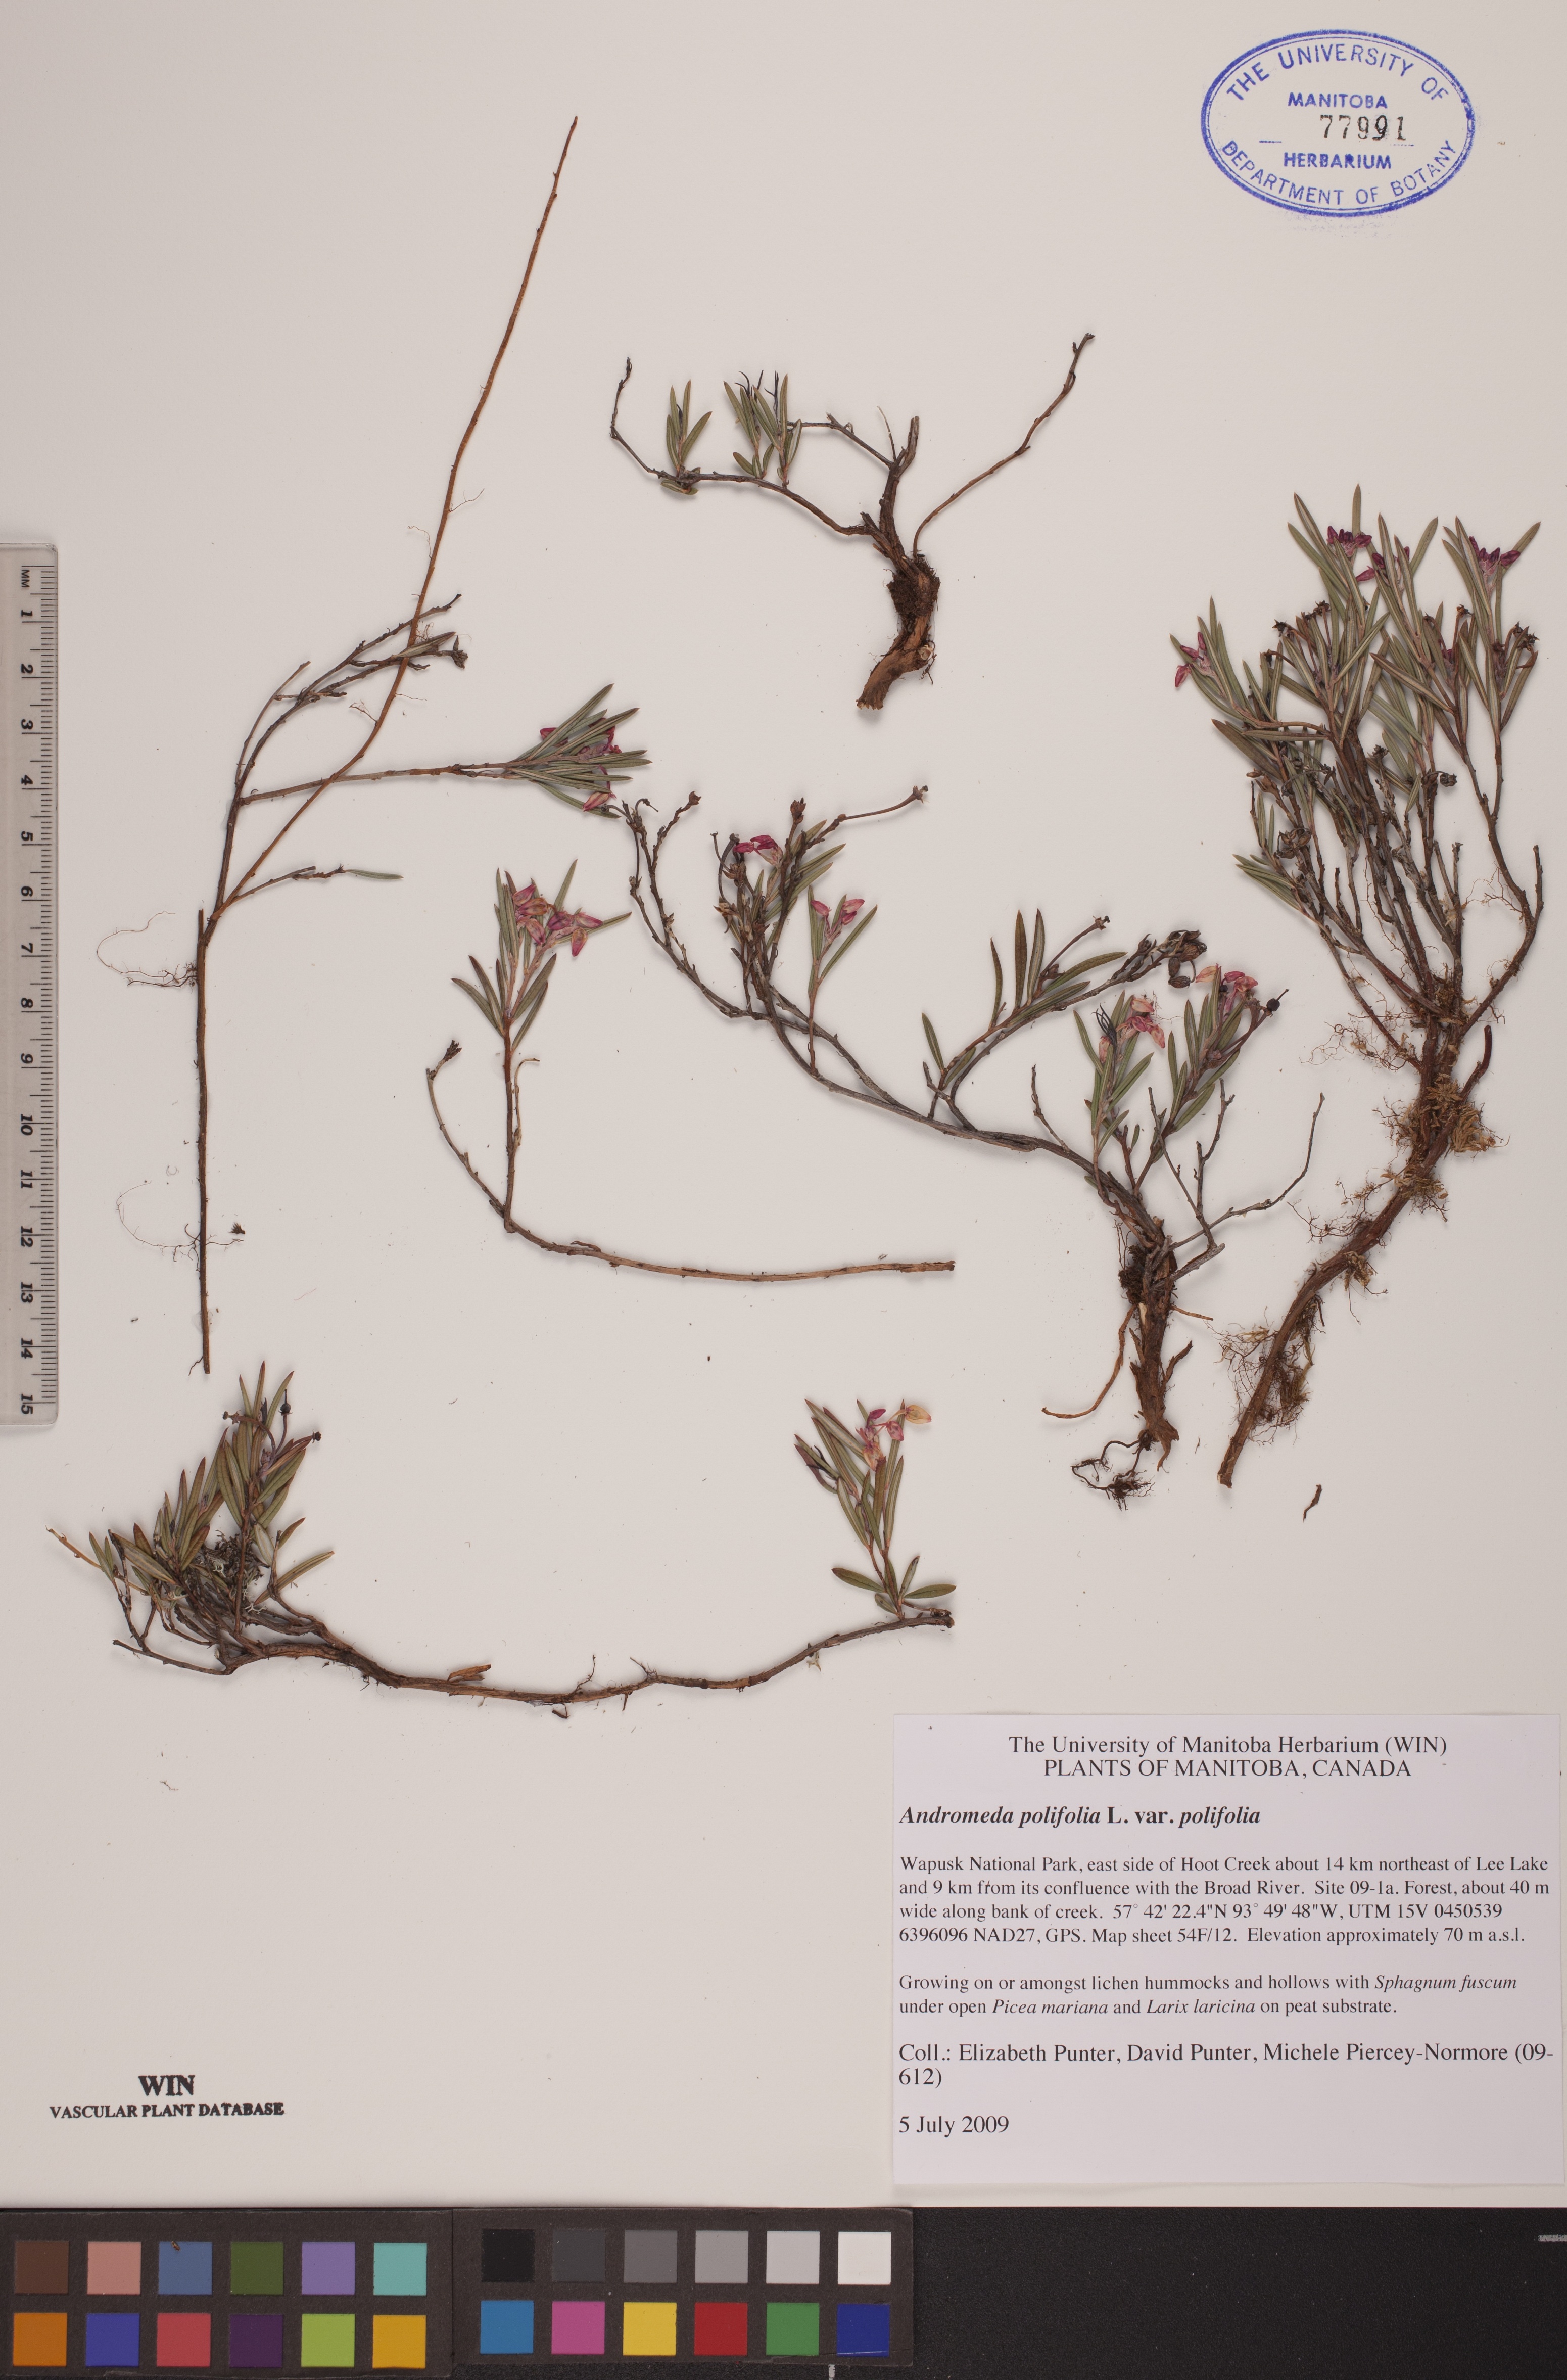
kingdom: Plantae
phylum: Tracheophyta
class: Magnoliopsida
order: Ericales
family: Ericaceae
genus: Andromeda
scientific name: Andromeda polifolia
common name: Bog-rosemary
